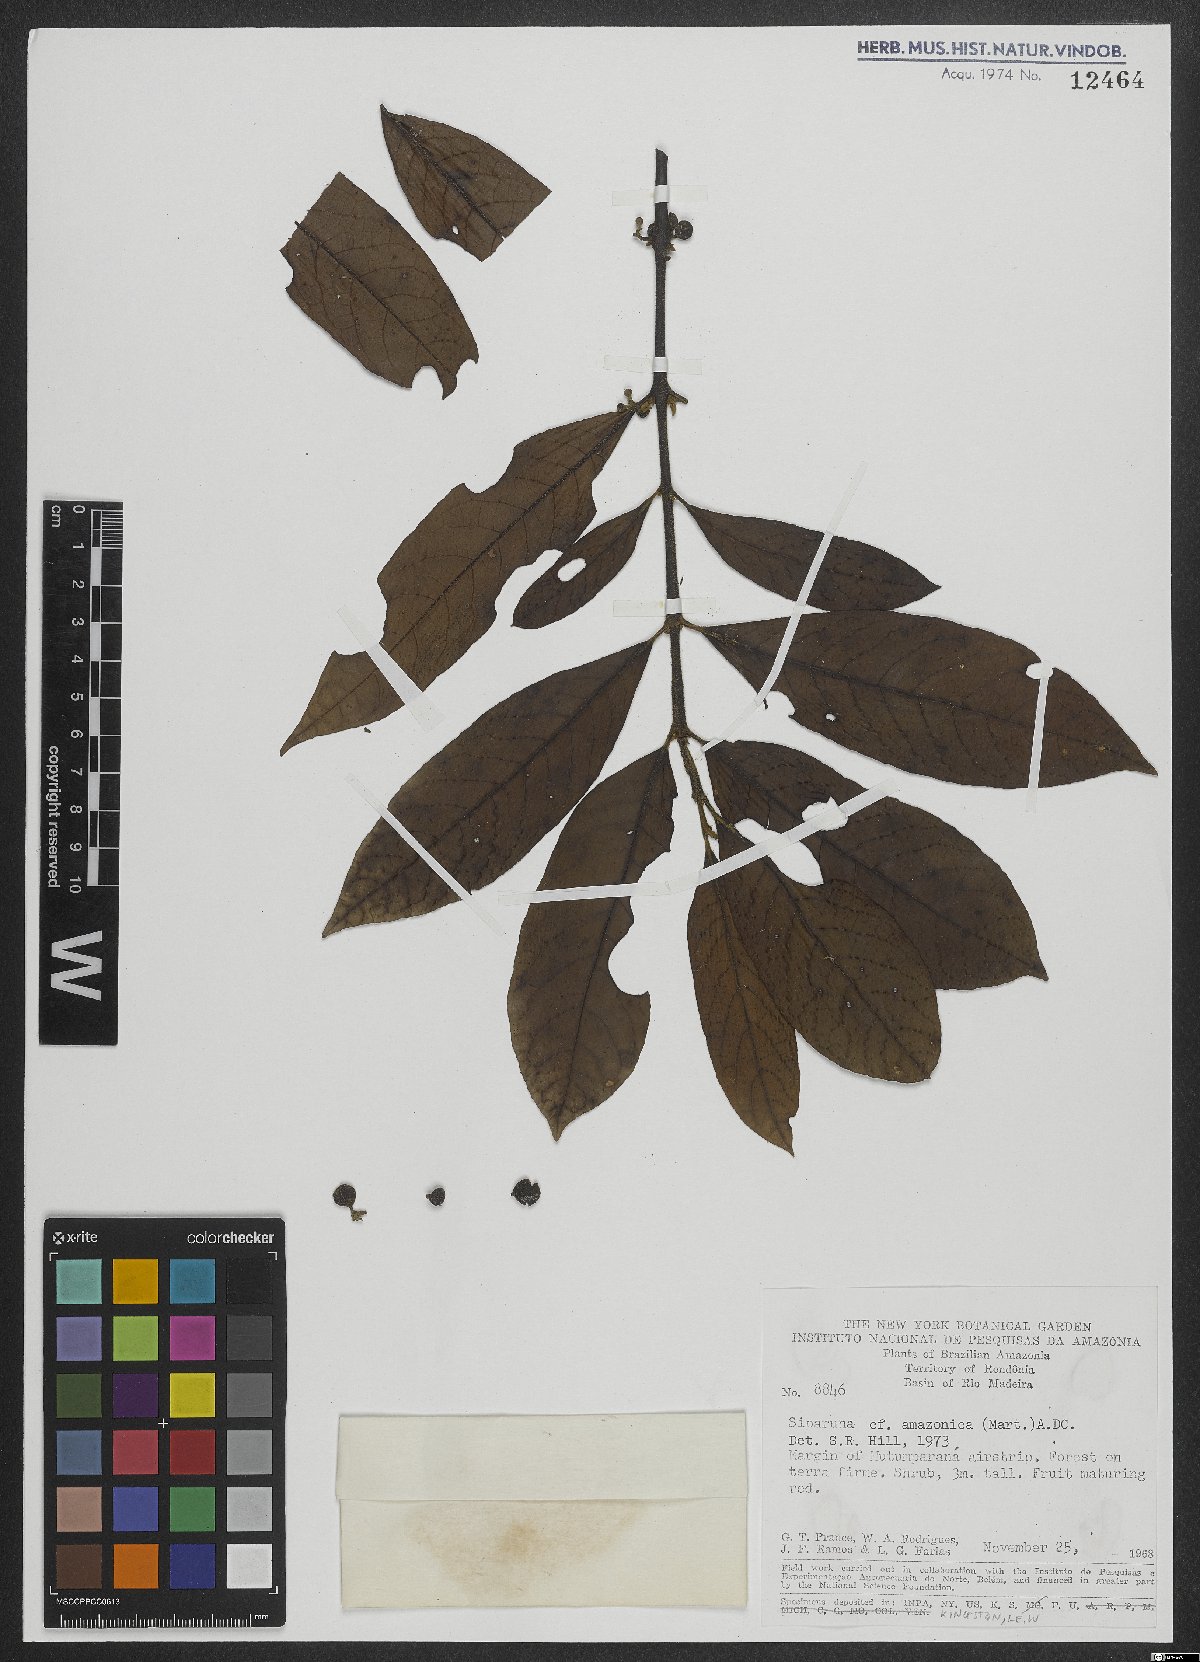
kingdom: Plantae
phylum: Tracheophyta
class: Magnoliopsida
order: Laurales
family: Siparunaceae
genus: Siparuna
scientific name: Siparuna poeppigii
